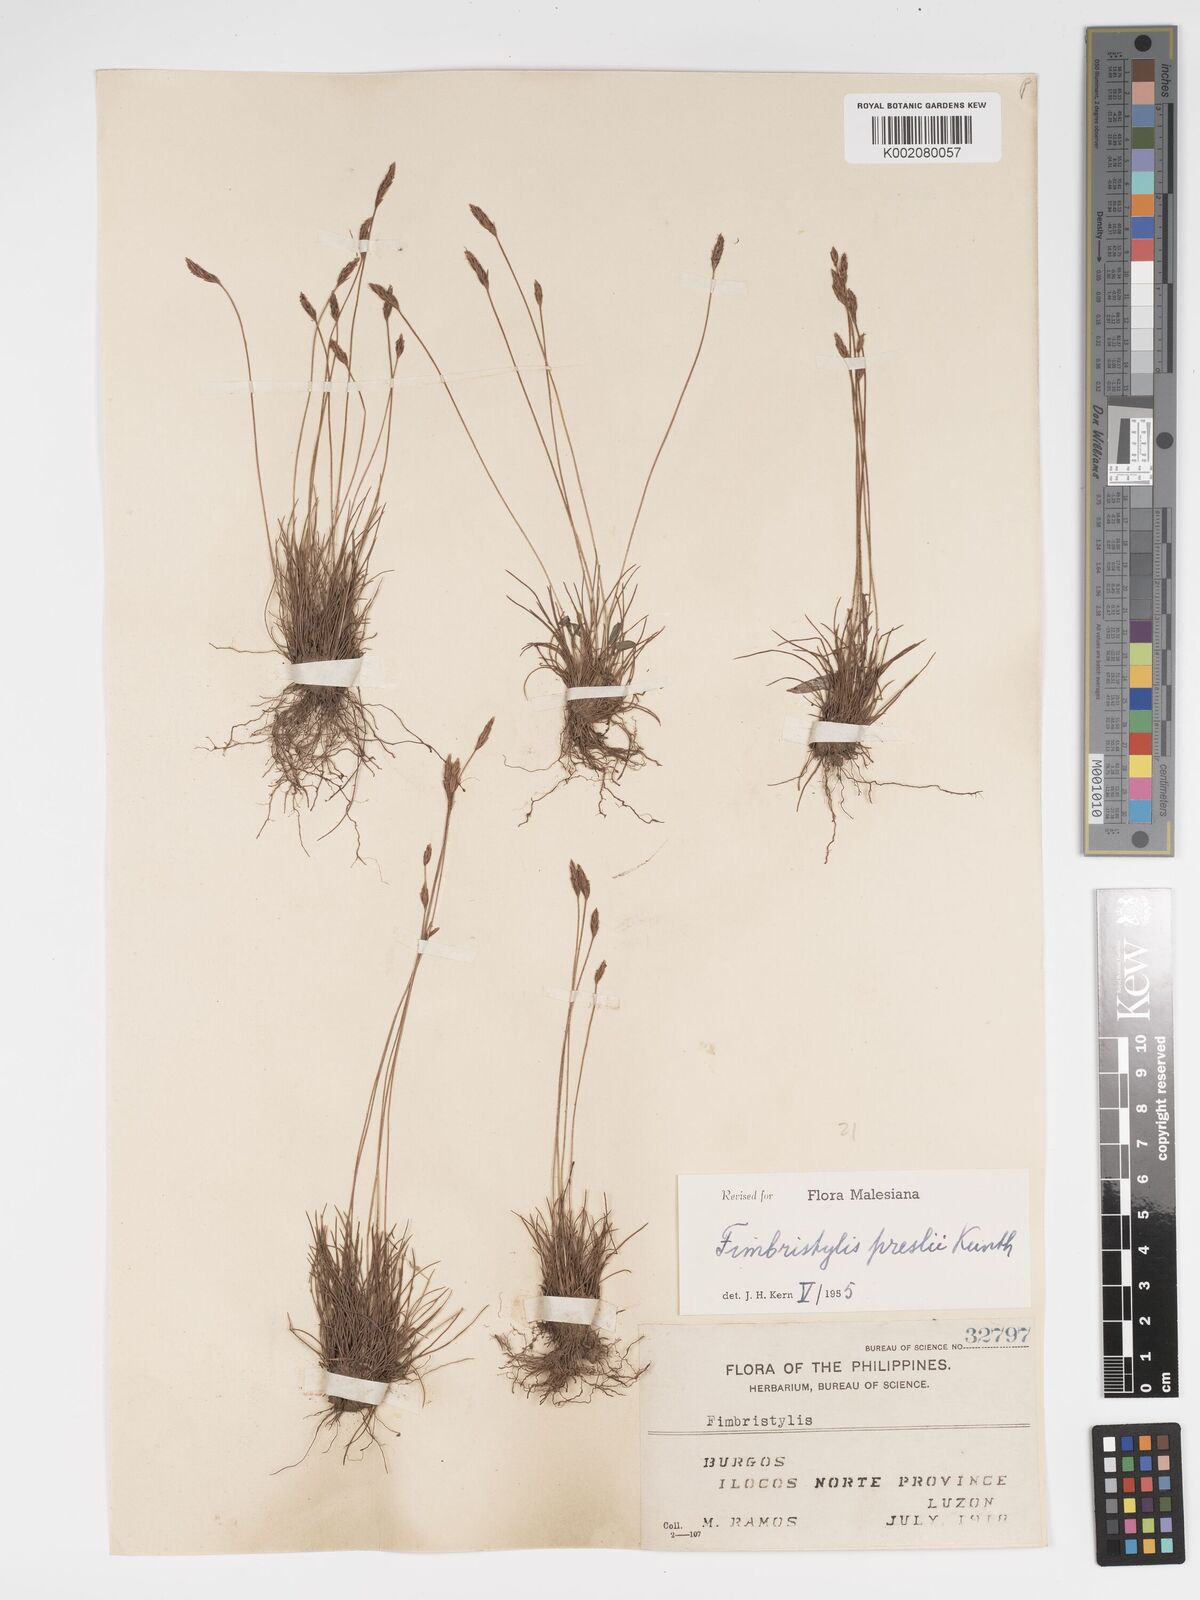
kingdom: Plantae
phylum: Tracheophyta
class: Liliopsida
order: Poales
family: Cyperaceae
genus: Bulbostylis
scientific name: Bulbostylis hispidula
